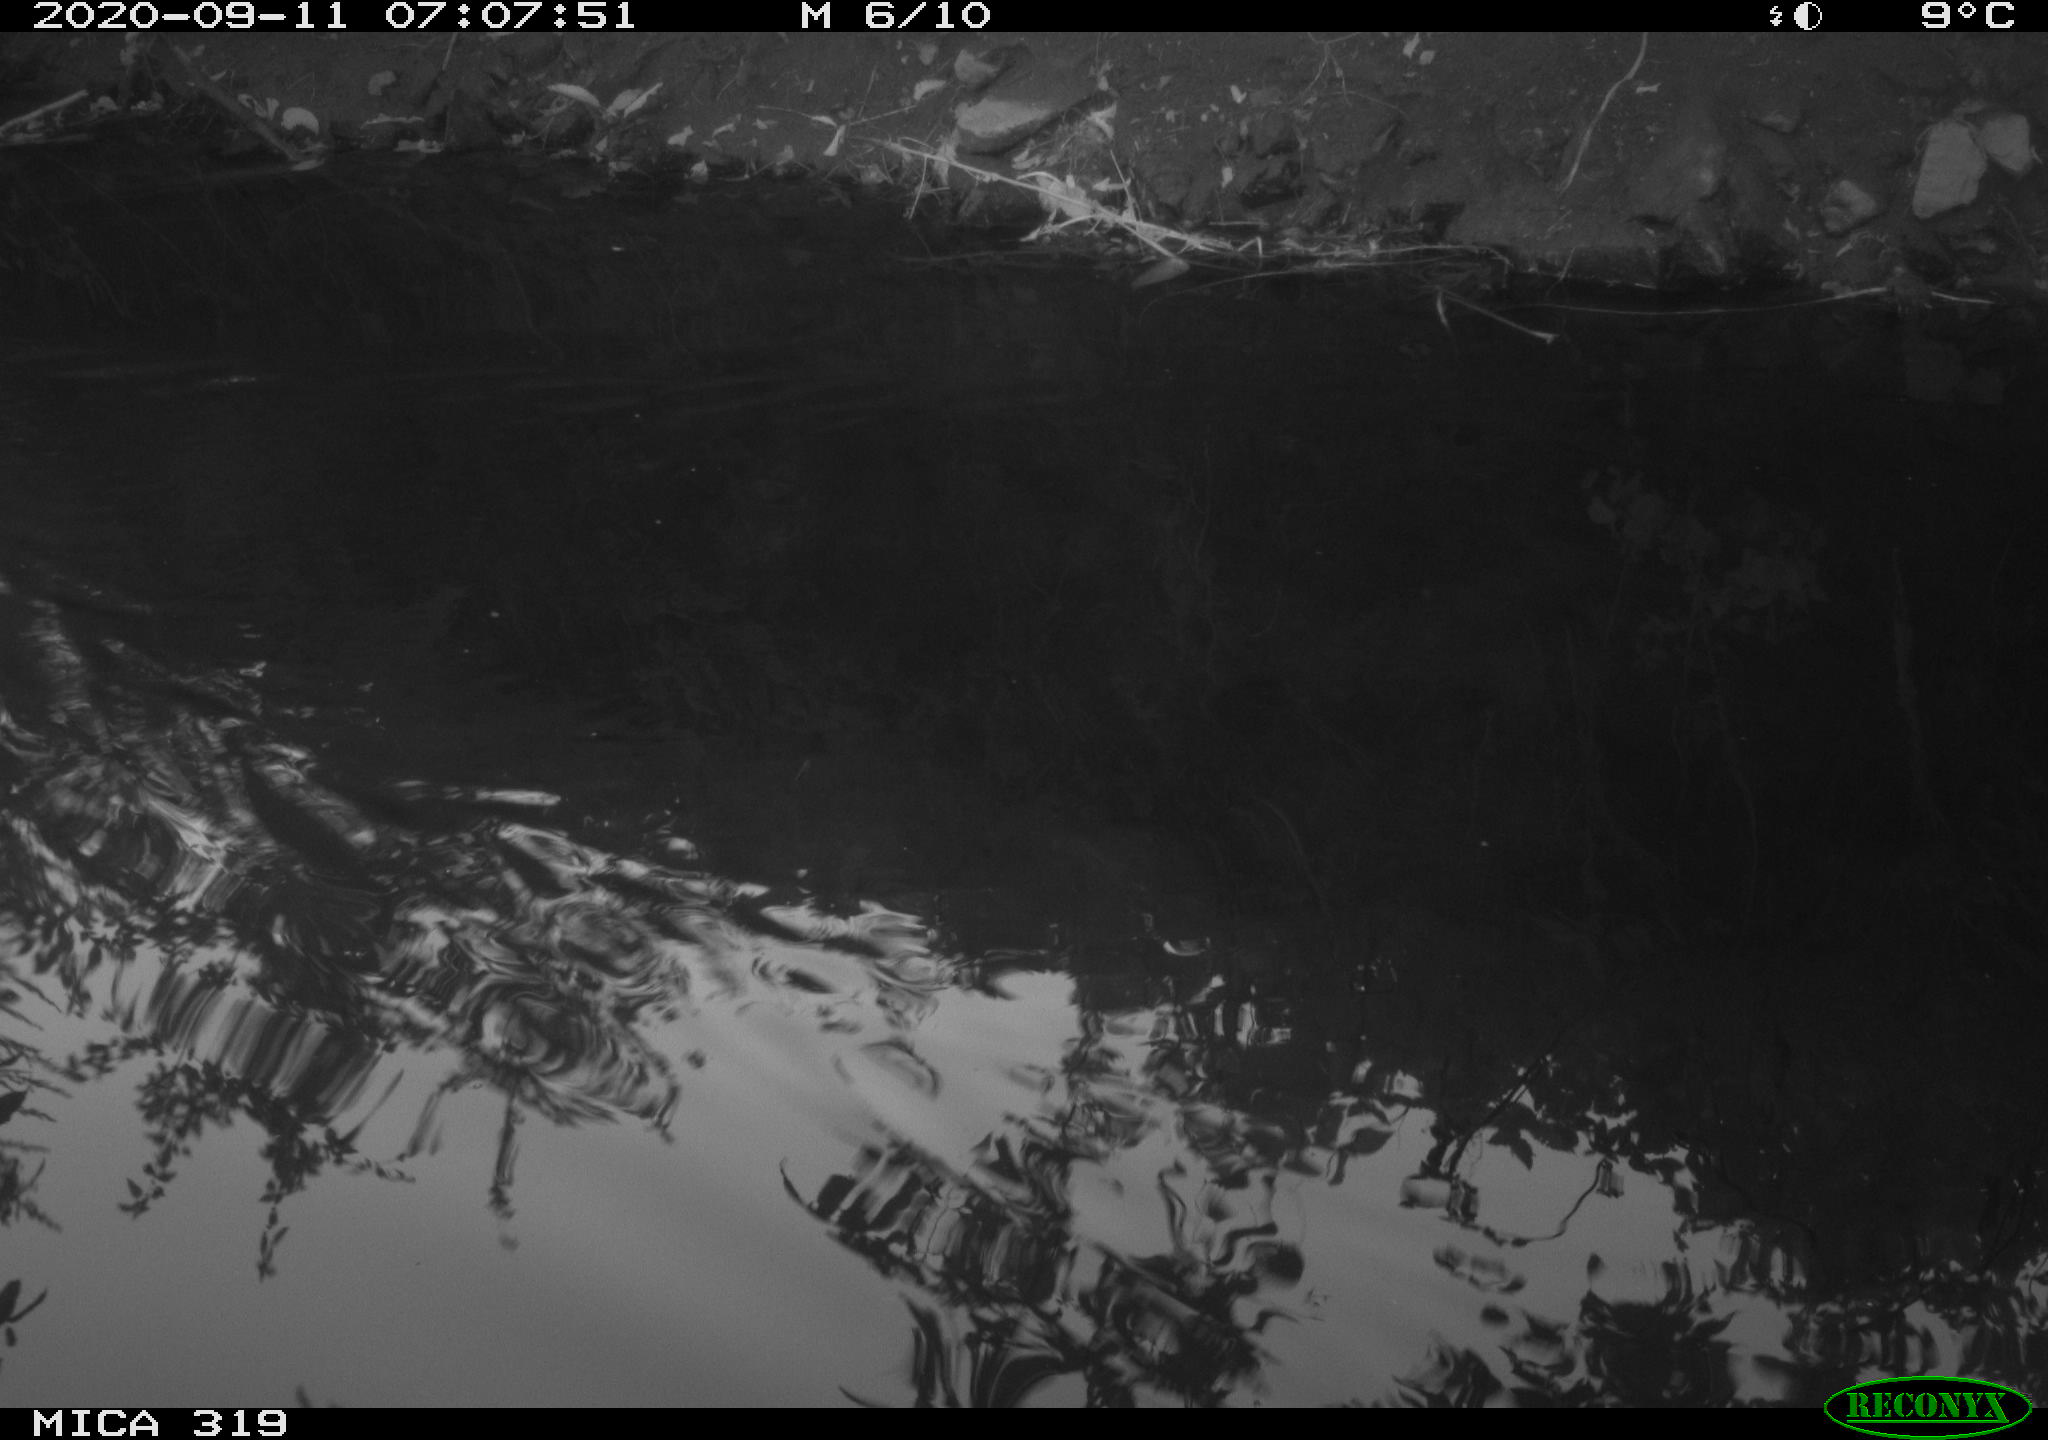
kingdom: Animalia
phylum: Chordata
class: Aves
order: Anseriformes
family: Anatidae
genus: Anas
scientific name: Anas platyrhynchos
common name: Mallard
